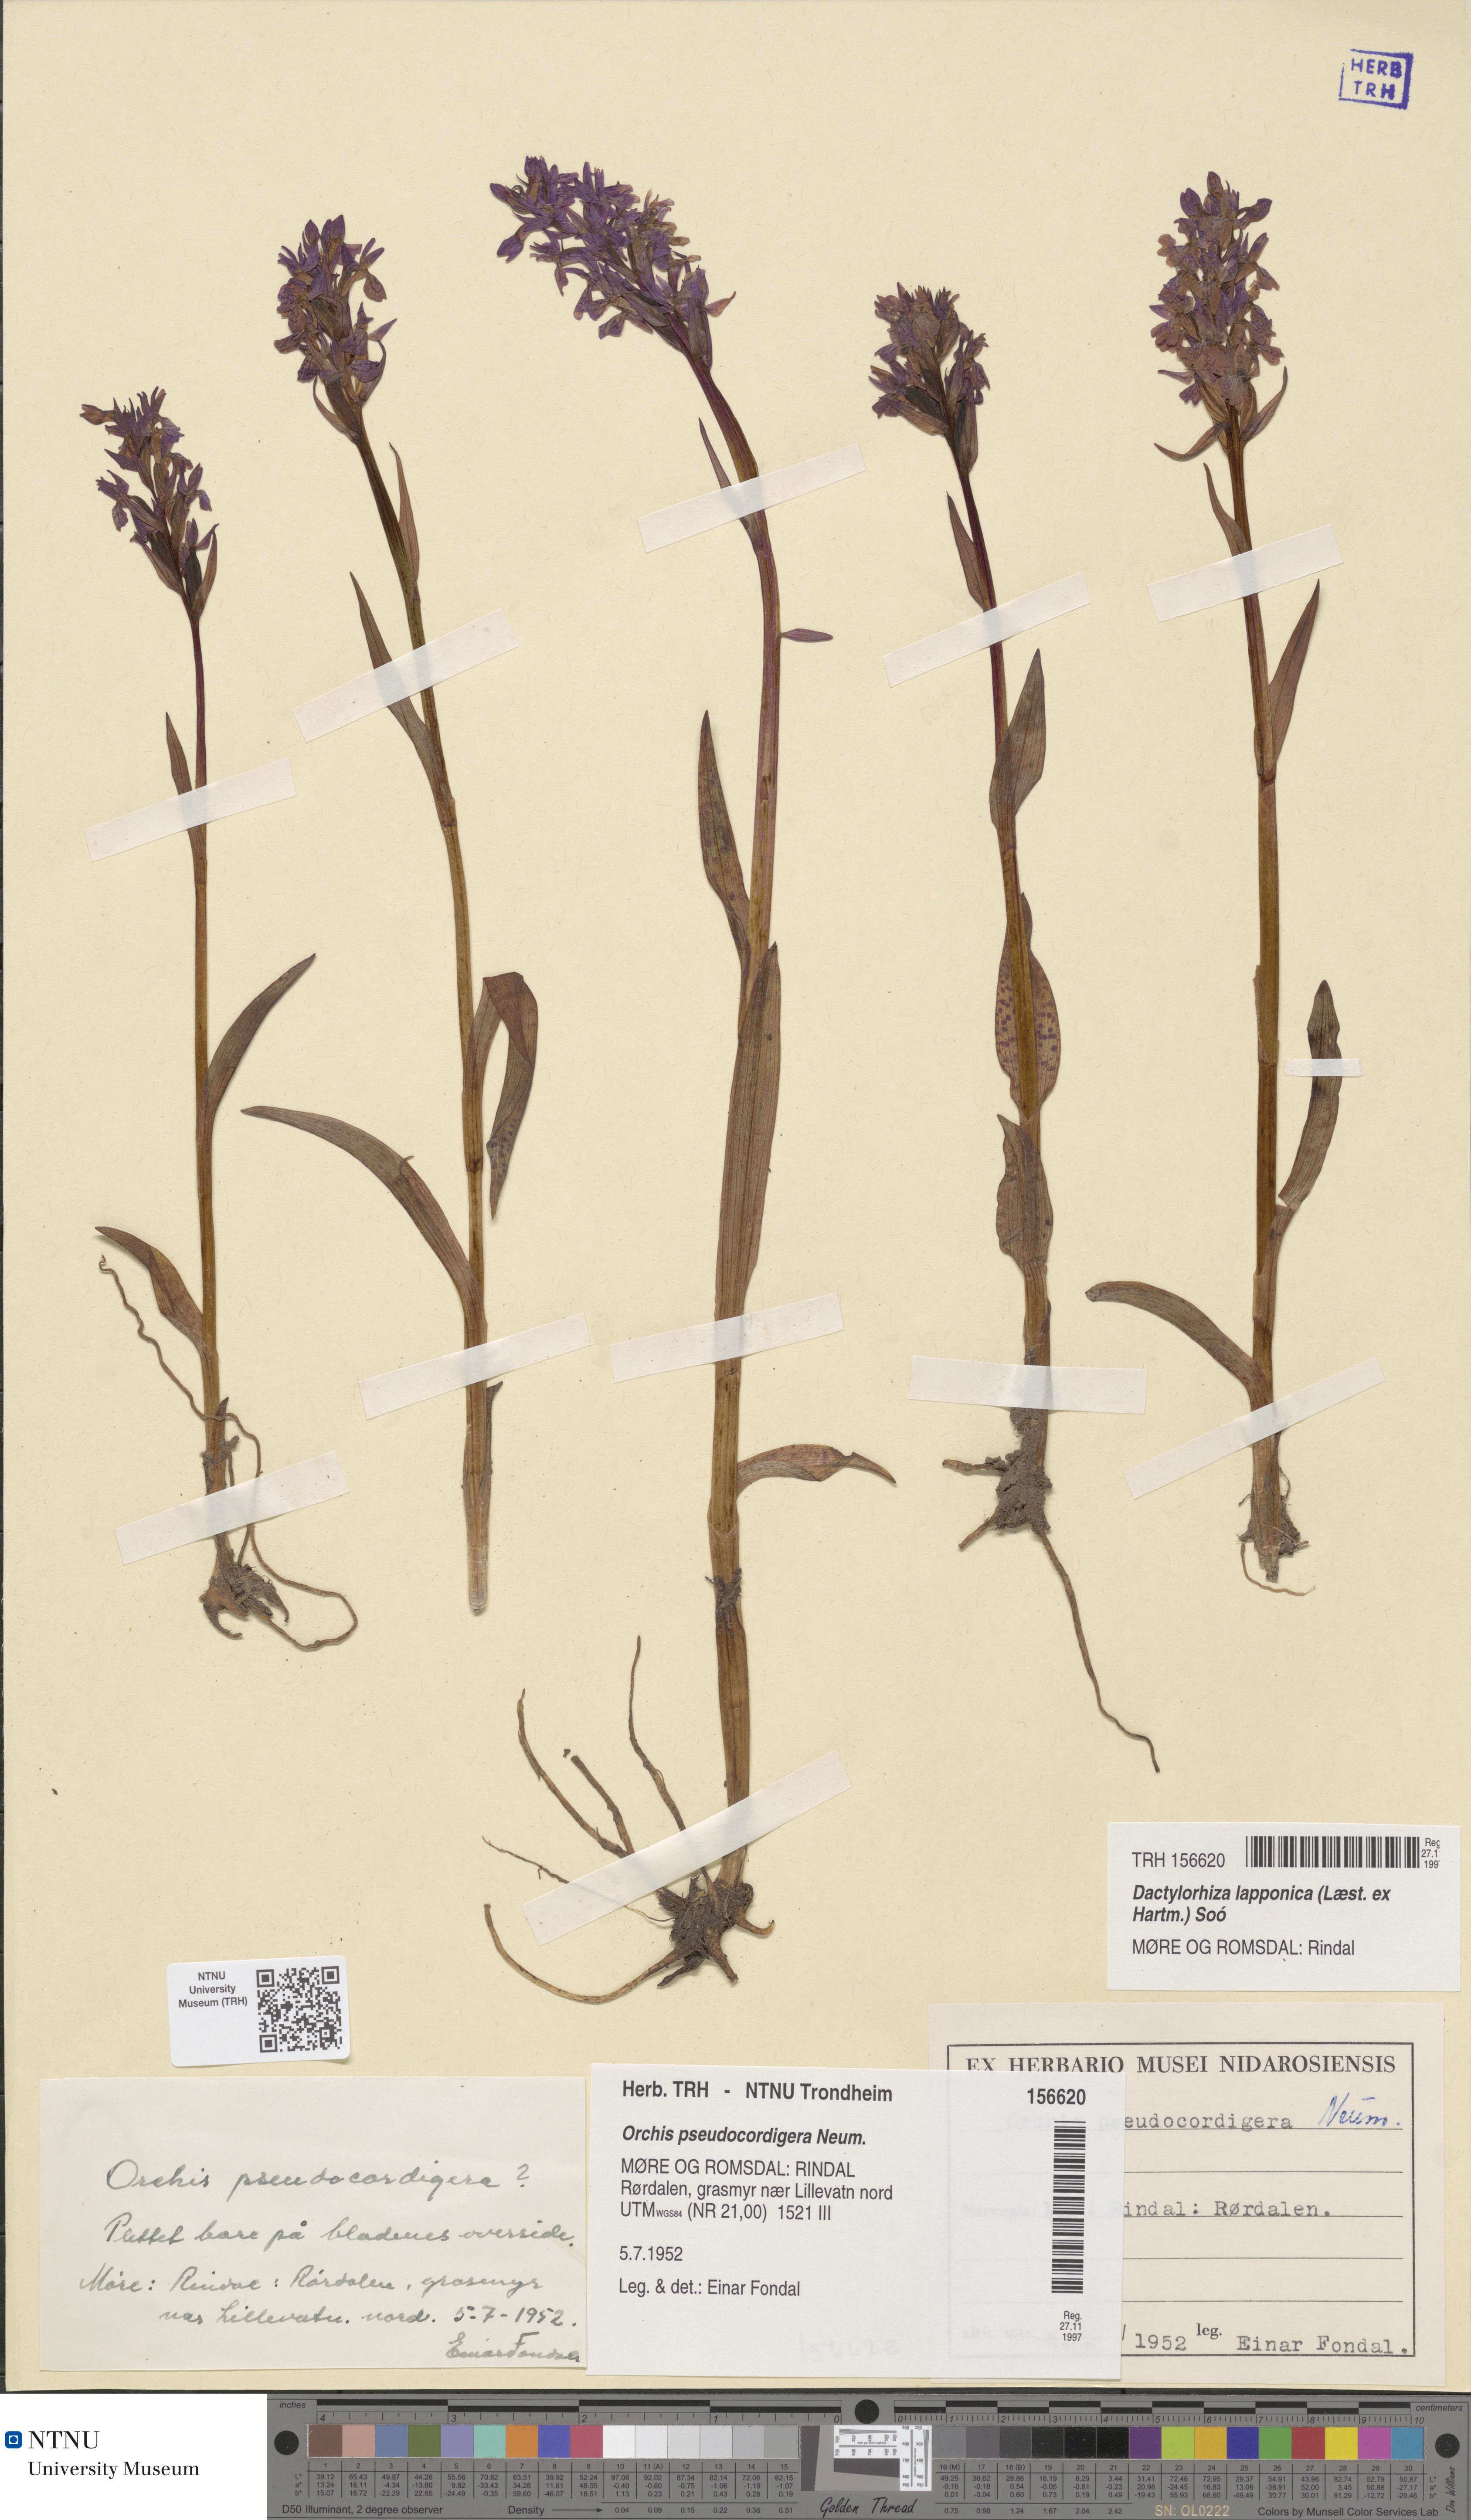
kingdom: Plantae
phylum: Tracheophyta
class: Liliopsida
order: Asparagales
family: Orchidaceae
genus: Dactylorhiza
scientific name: Dactylorhiza majalis
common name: Marsh orchid
